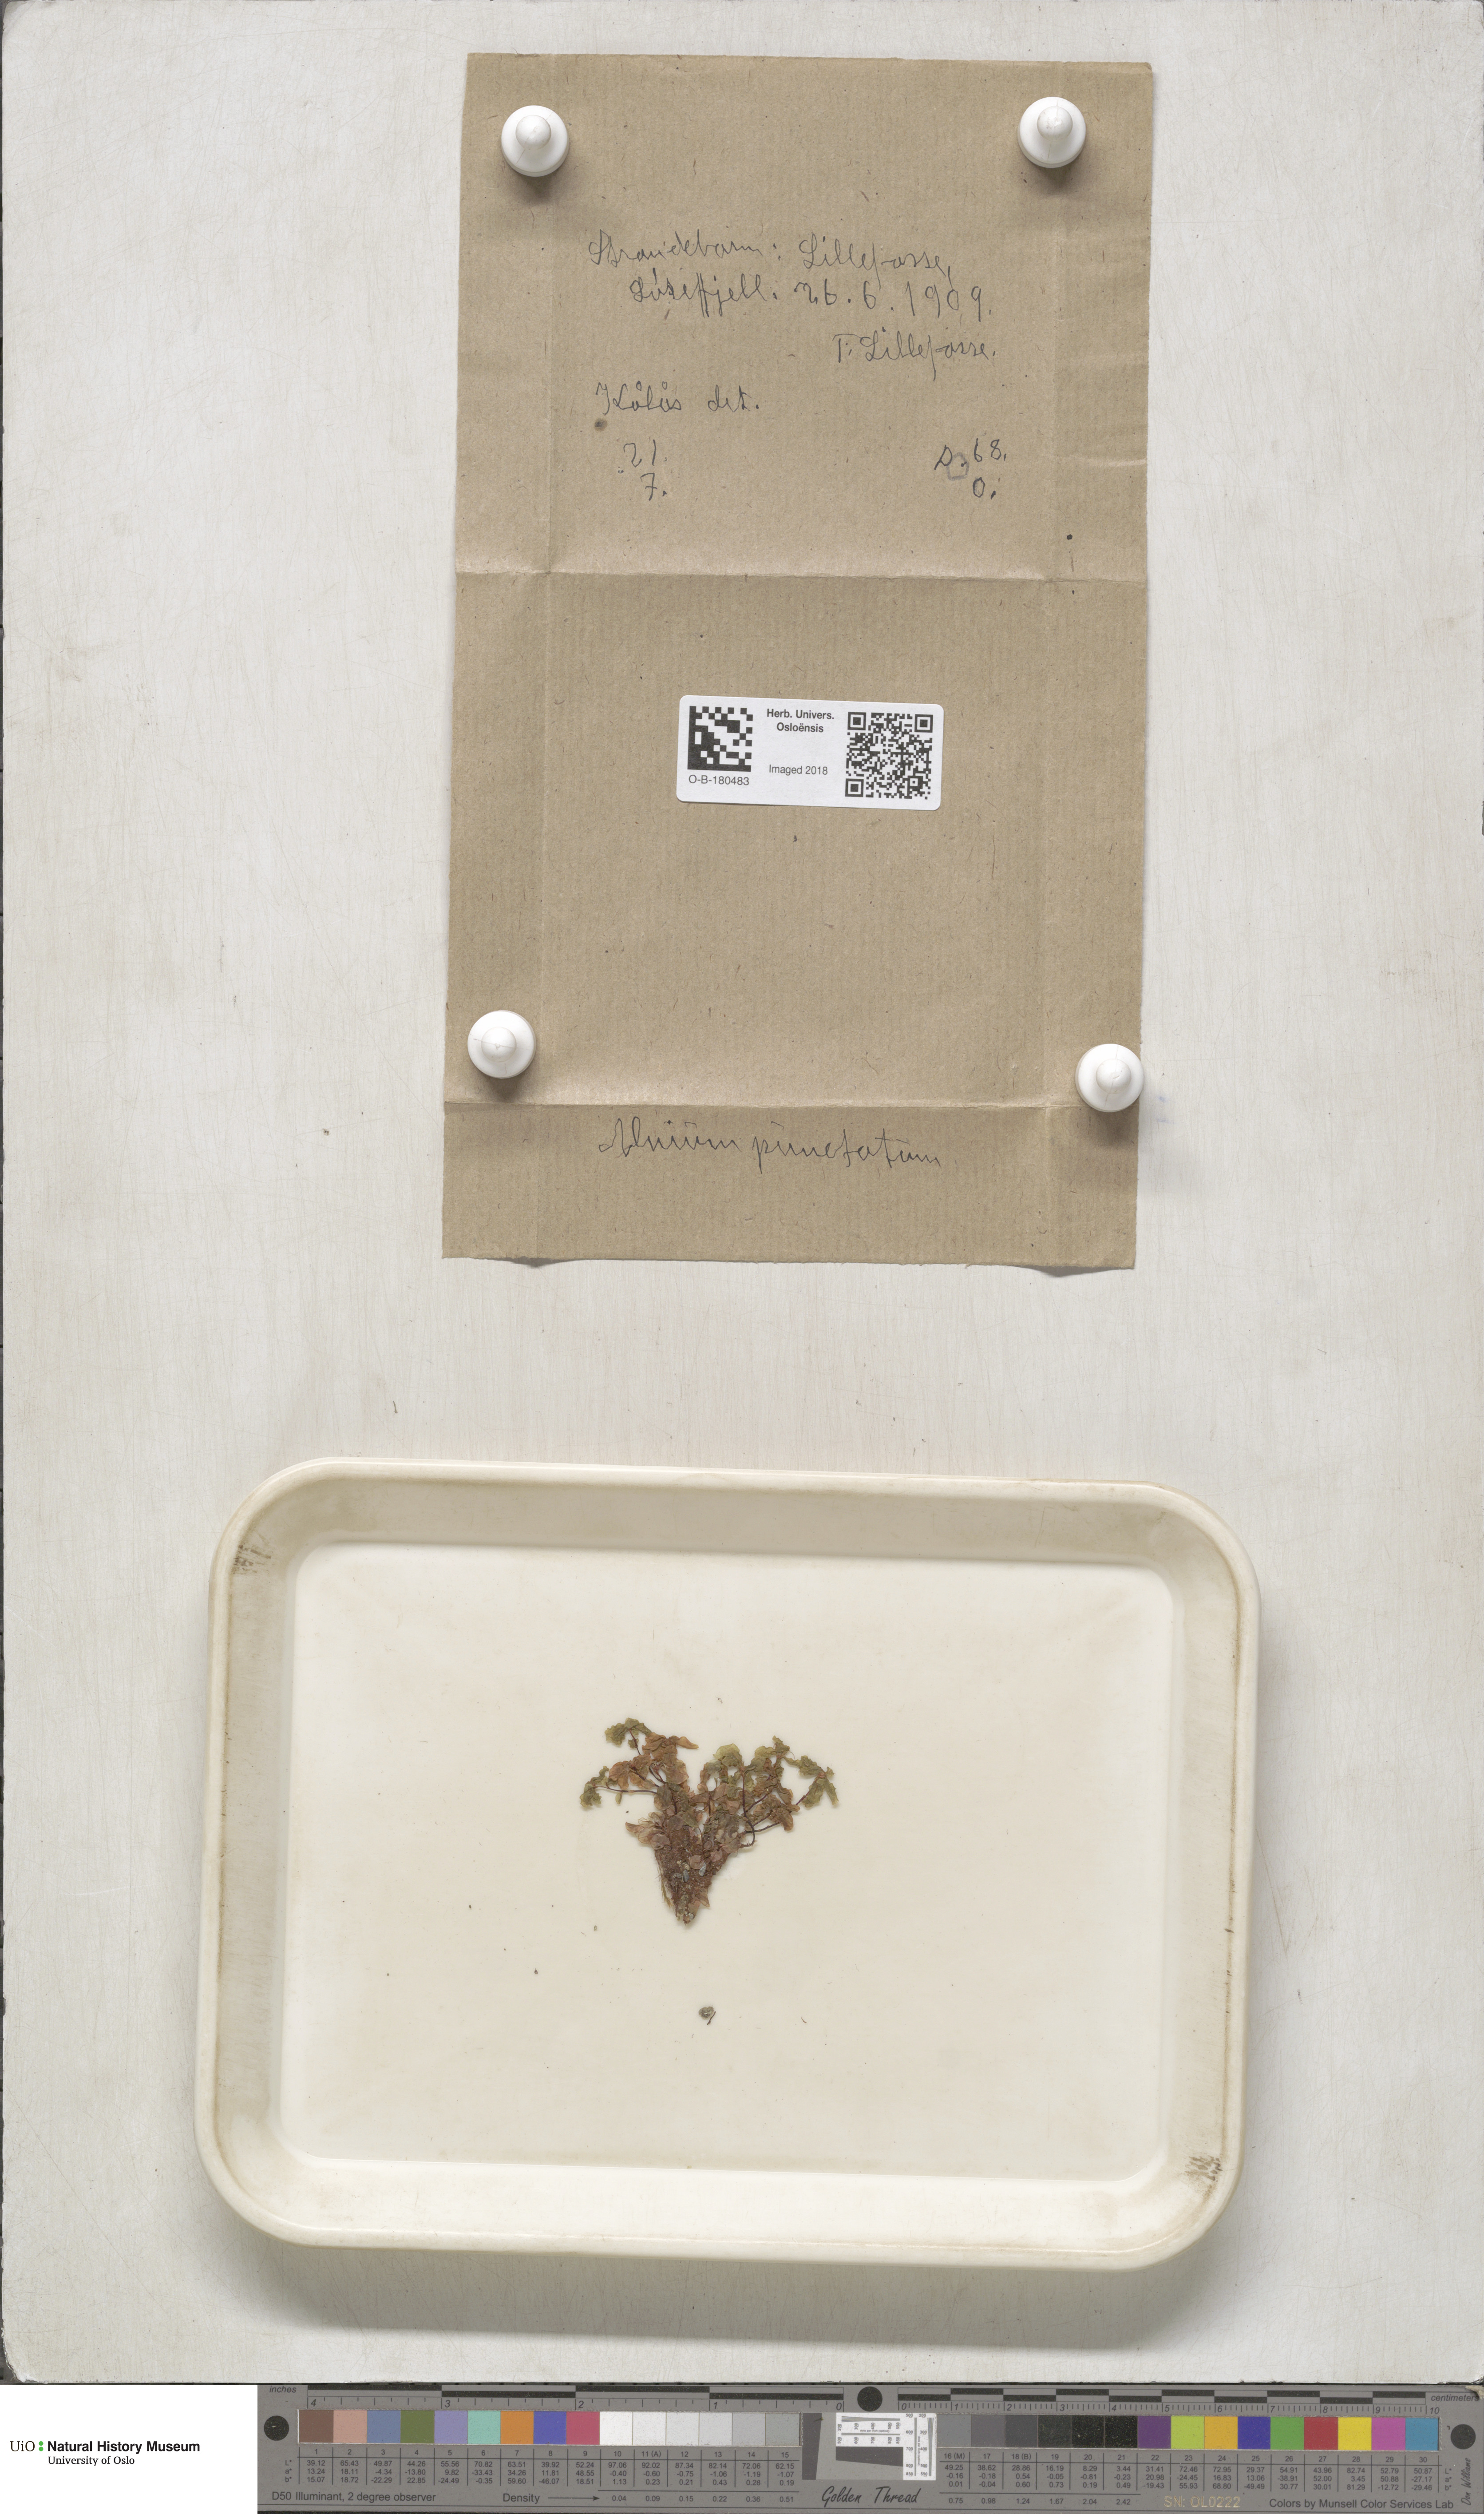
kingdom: Plantae
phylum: Bryophyta
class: Bryopsida
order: Bryales
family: Mniaceae
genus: Rhizomnium
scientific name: Rhizomnium punctatum
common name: Dotted leafy moss
